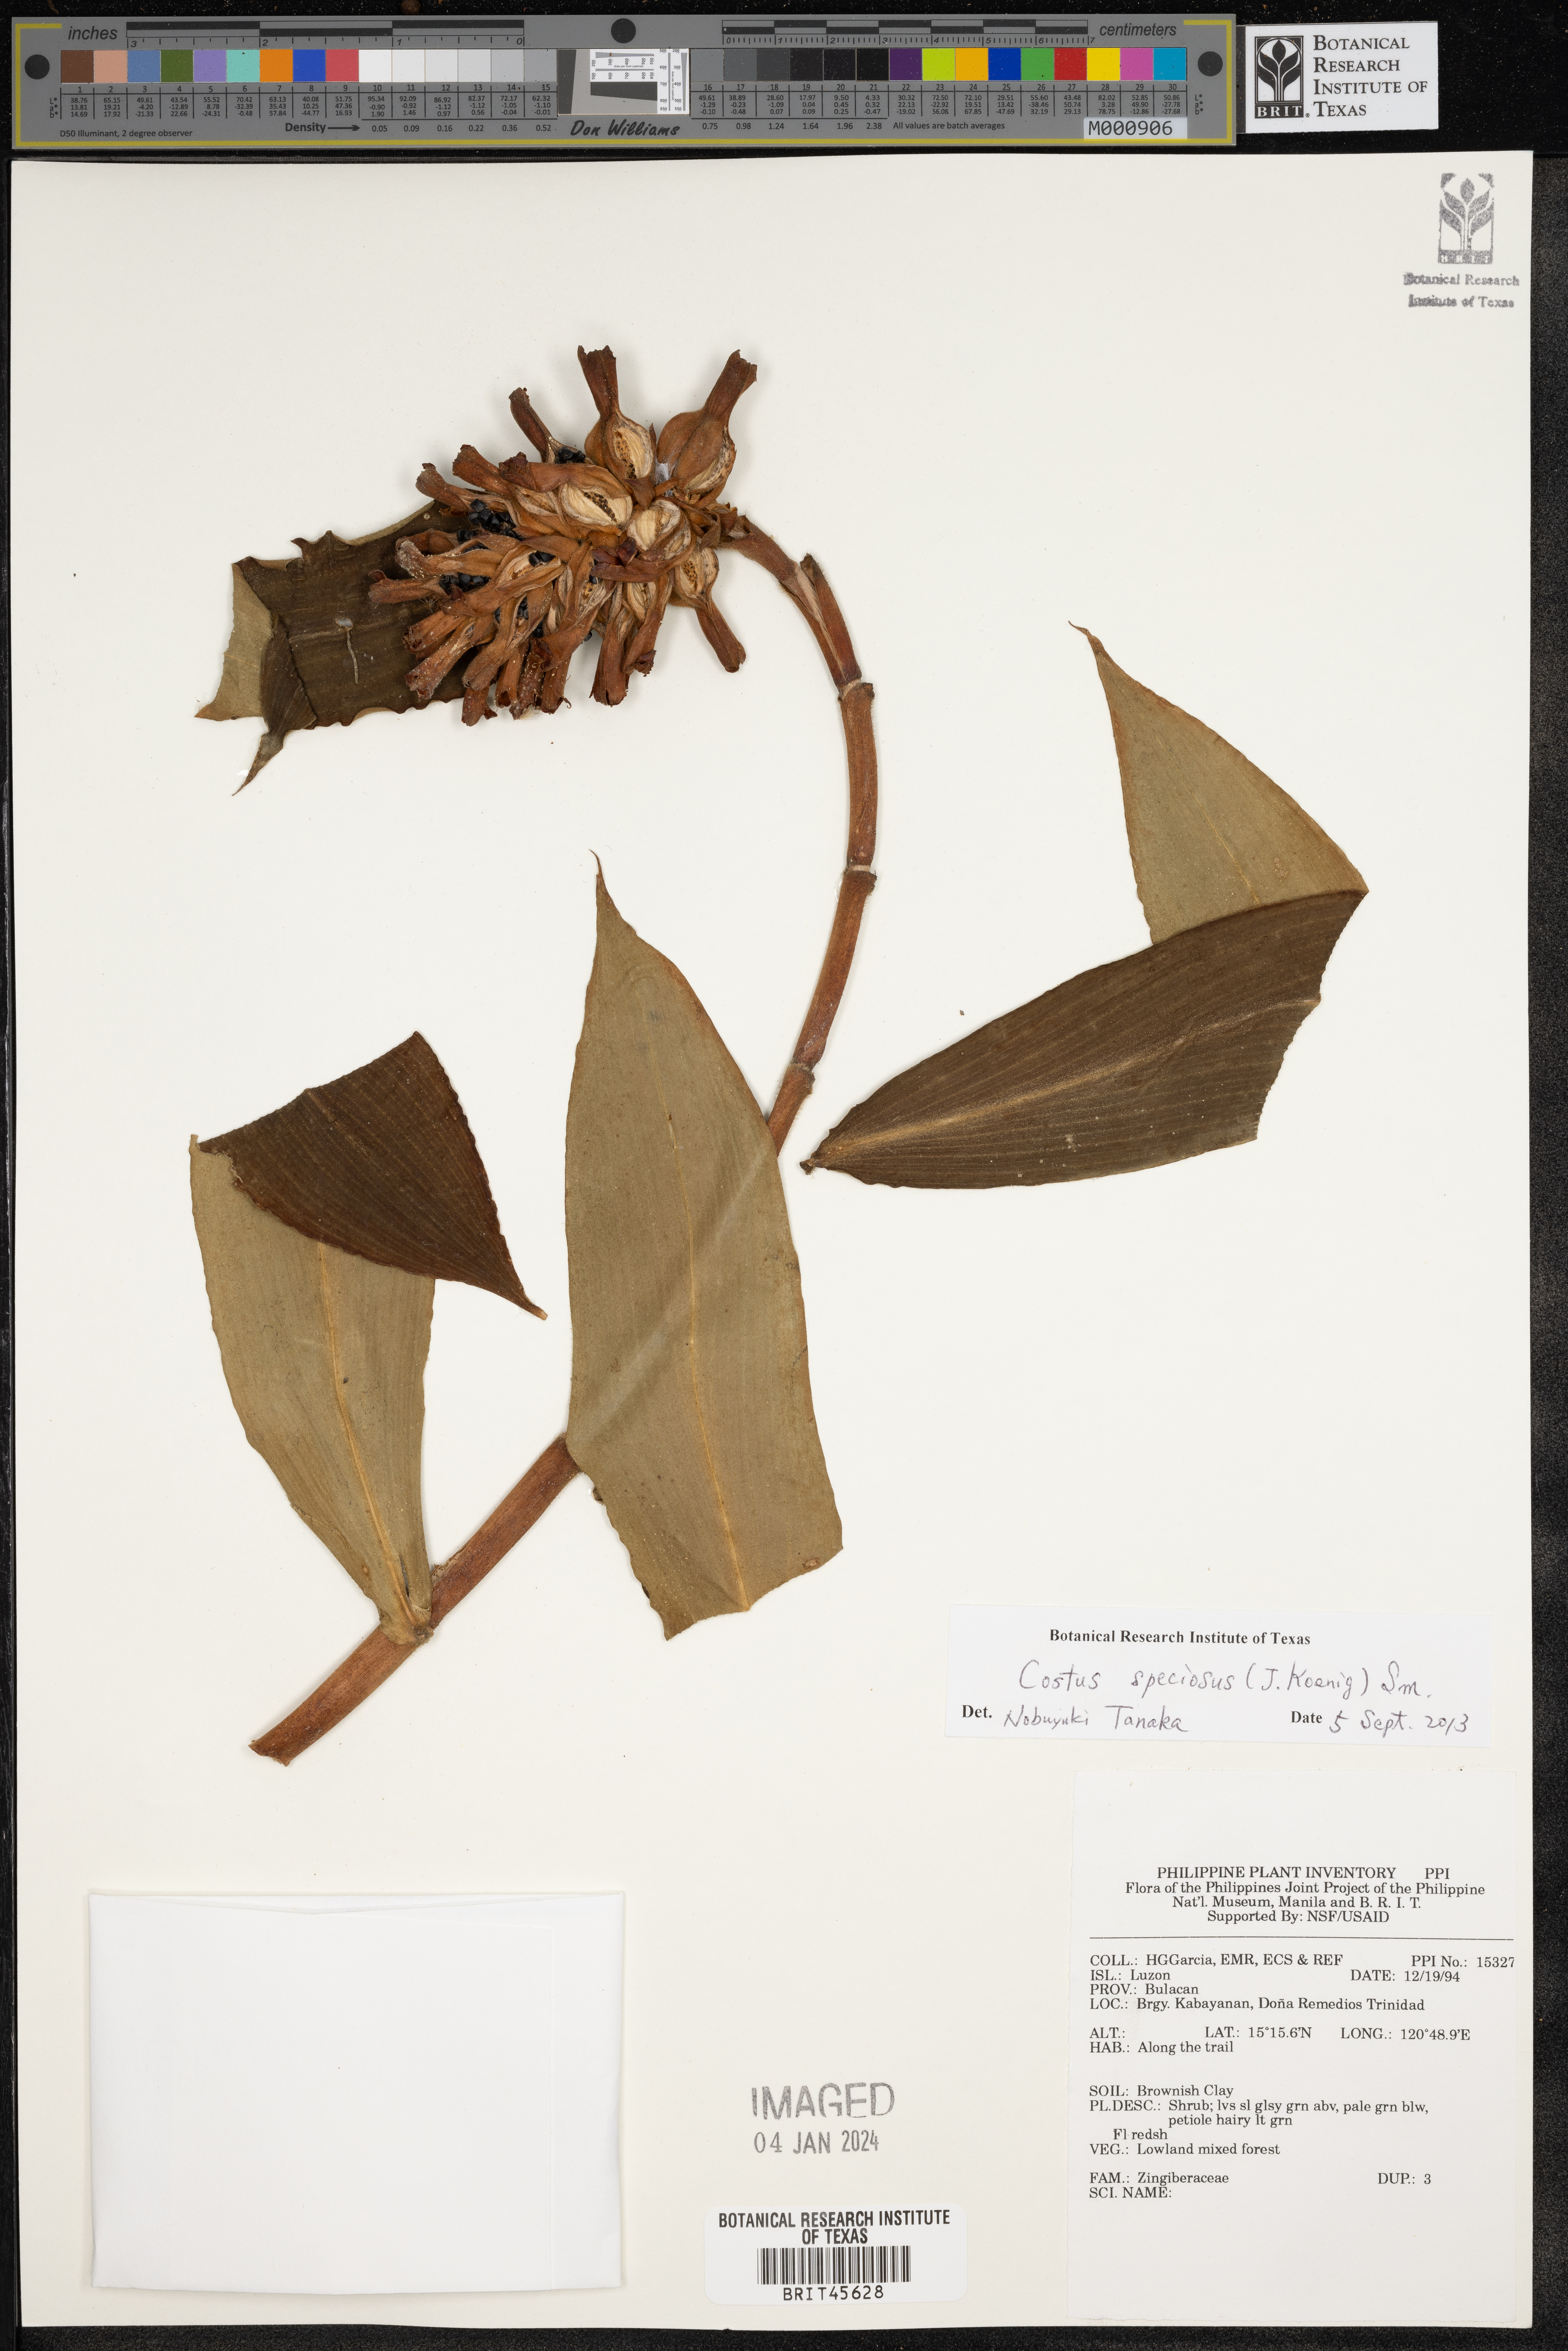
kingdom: Plantae
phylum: Tracheophyta
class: Liliopsida
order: Zingiberales
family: Zingiberaceae
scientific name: Zingiberaceae
